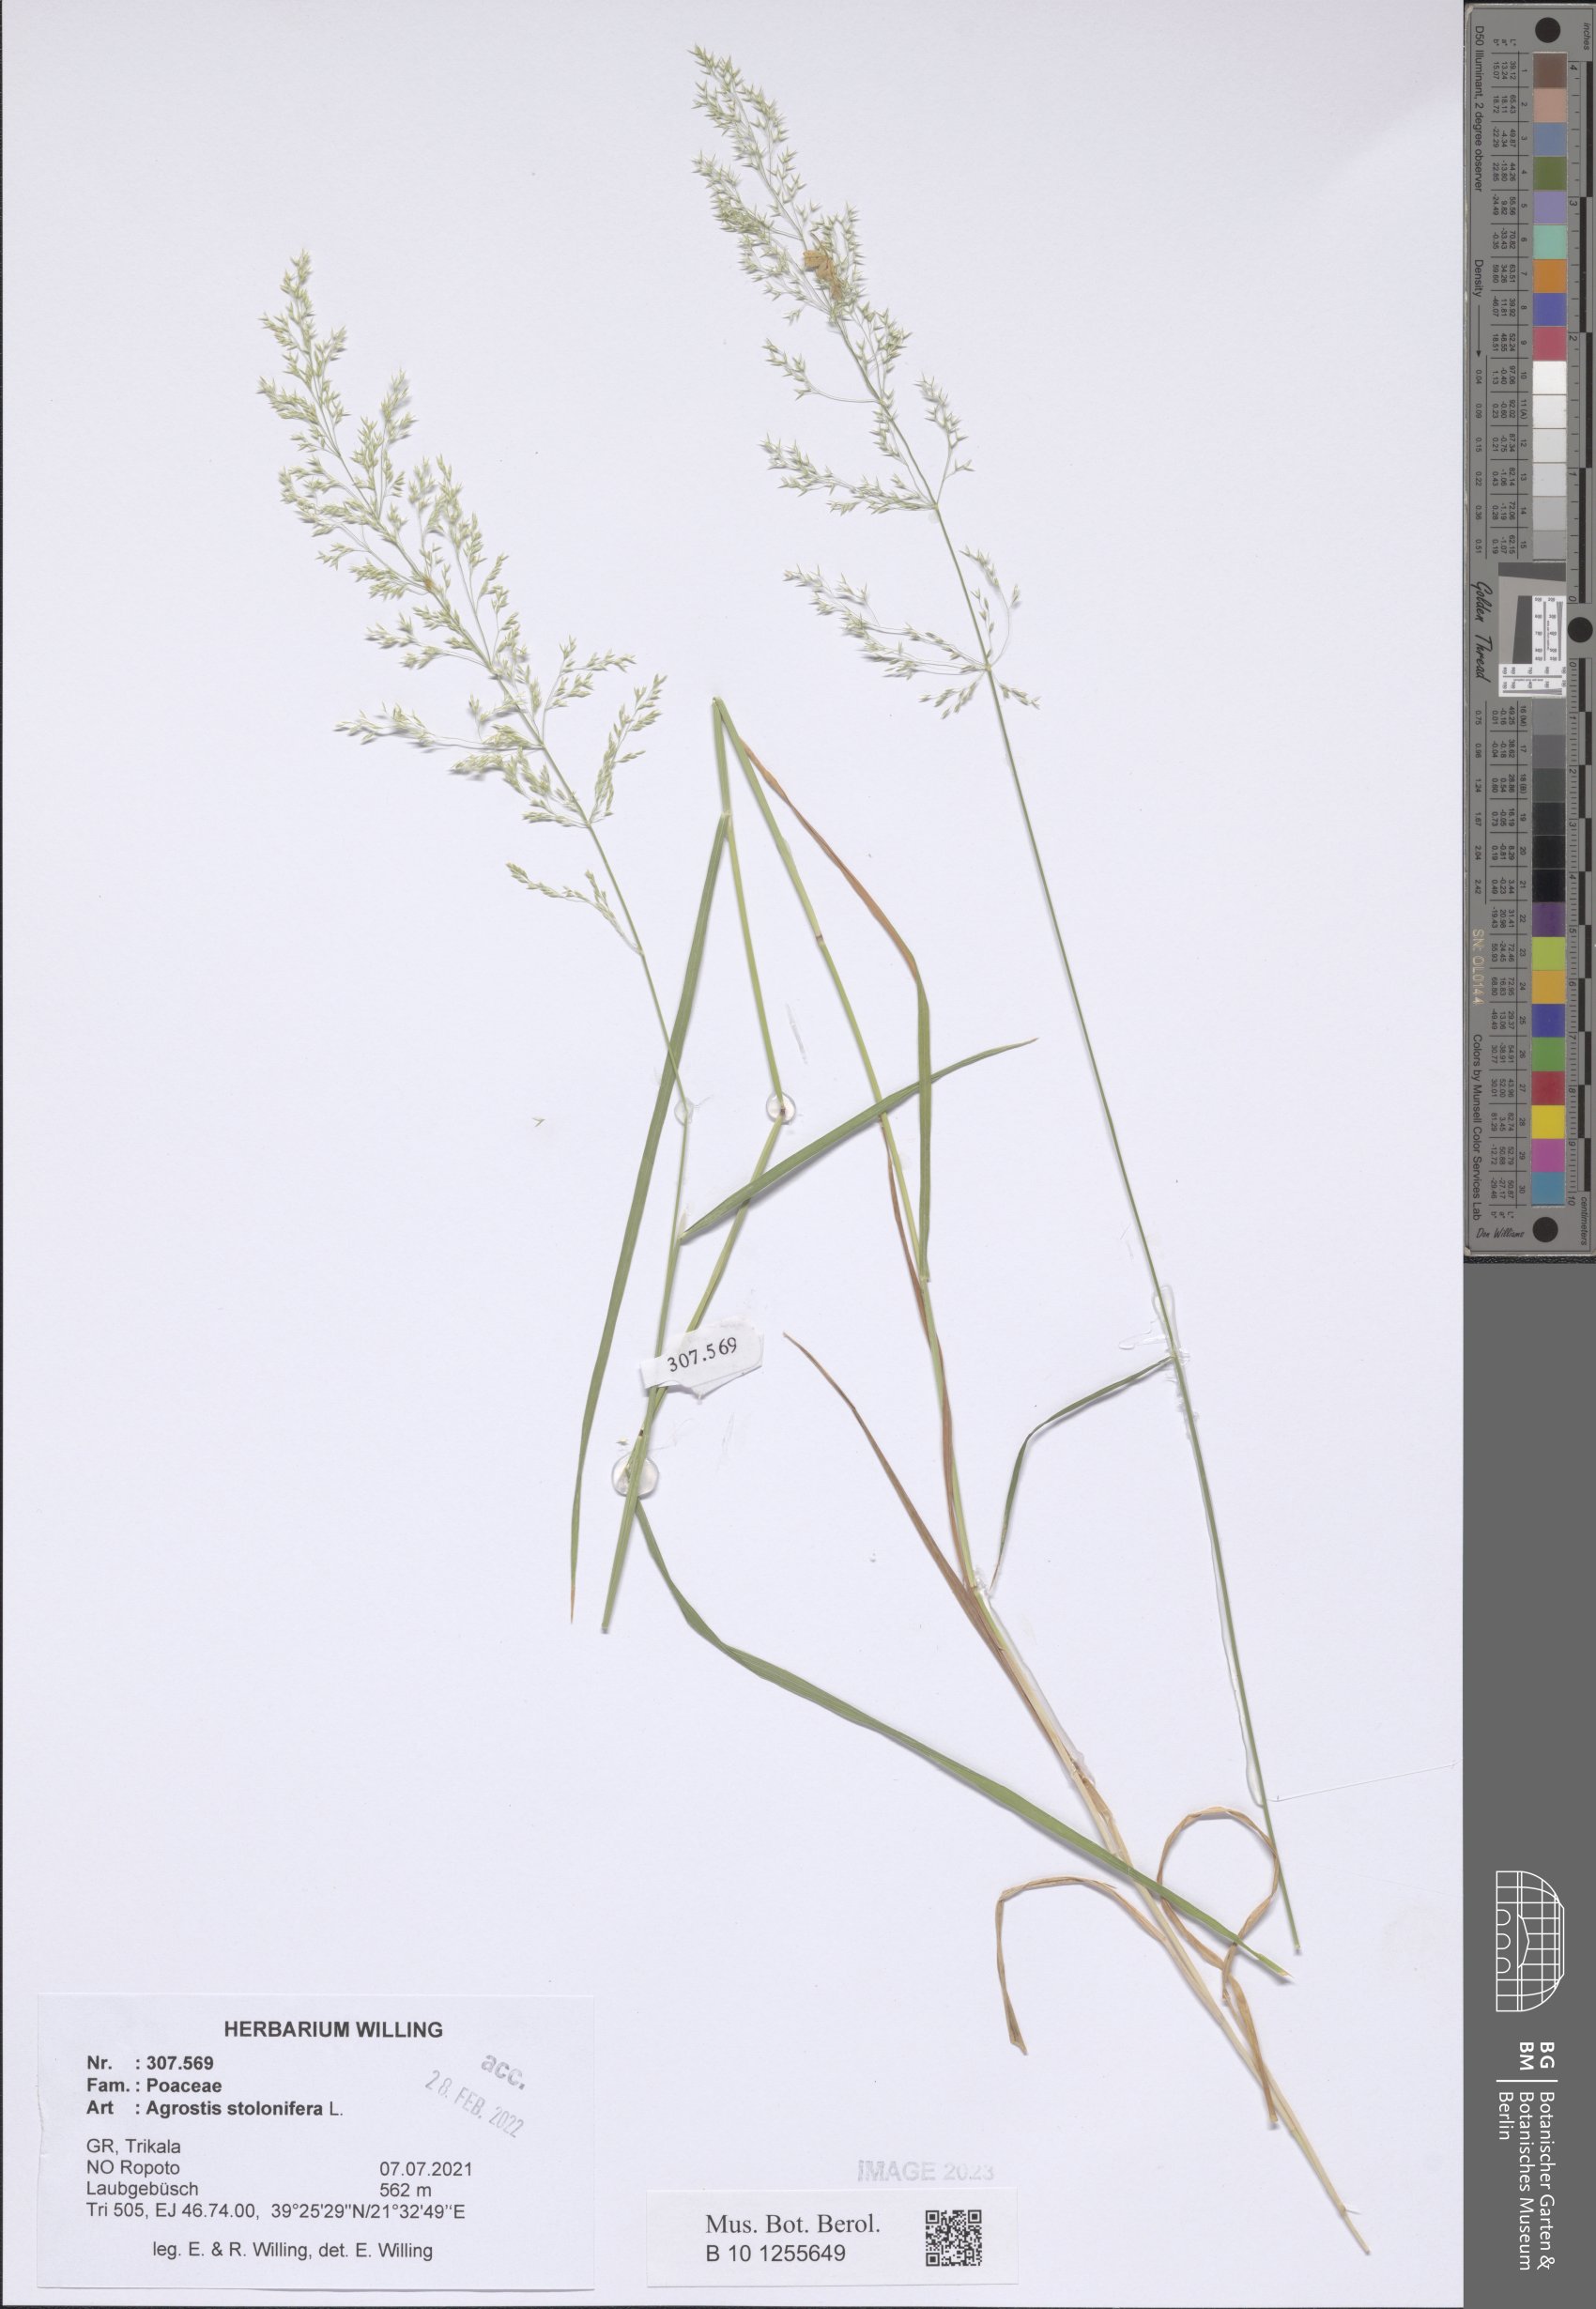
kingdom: Plantae
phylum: Tracheophyta
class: Liliopsida
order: Poales
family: Poaceae
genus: Agrostis
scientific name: Agrostis stolonifera
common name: Creeping bentgrass
